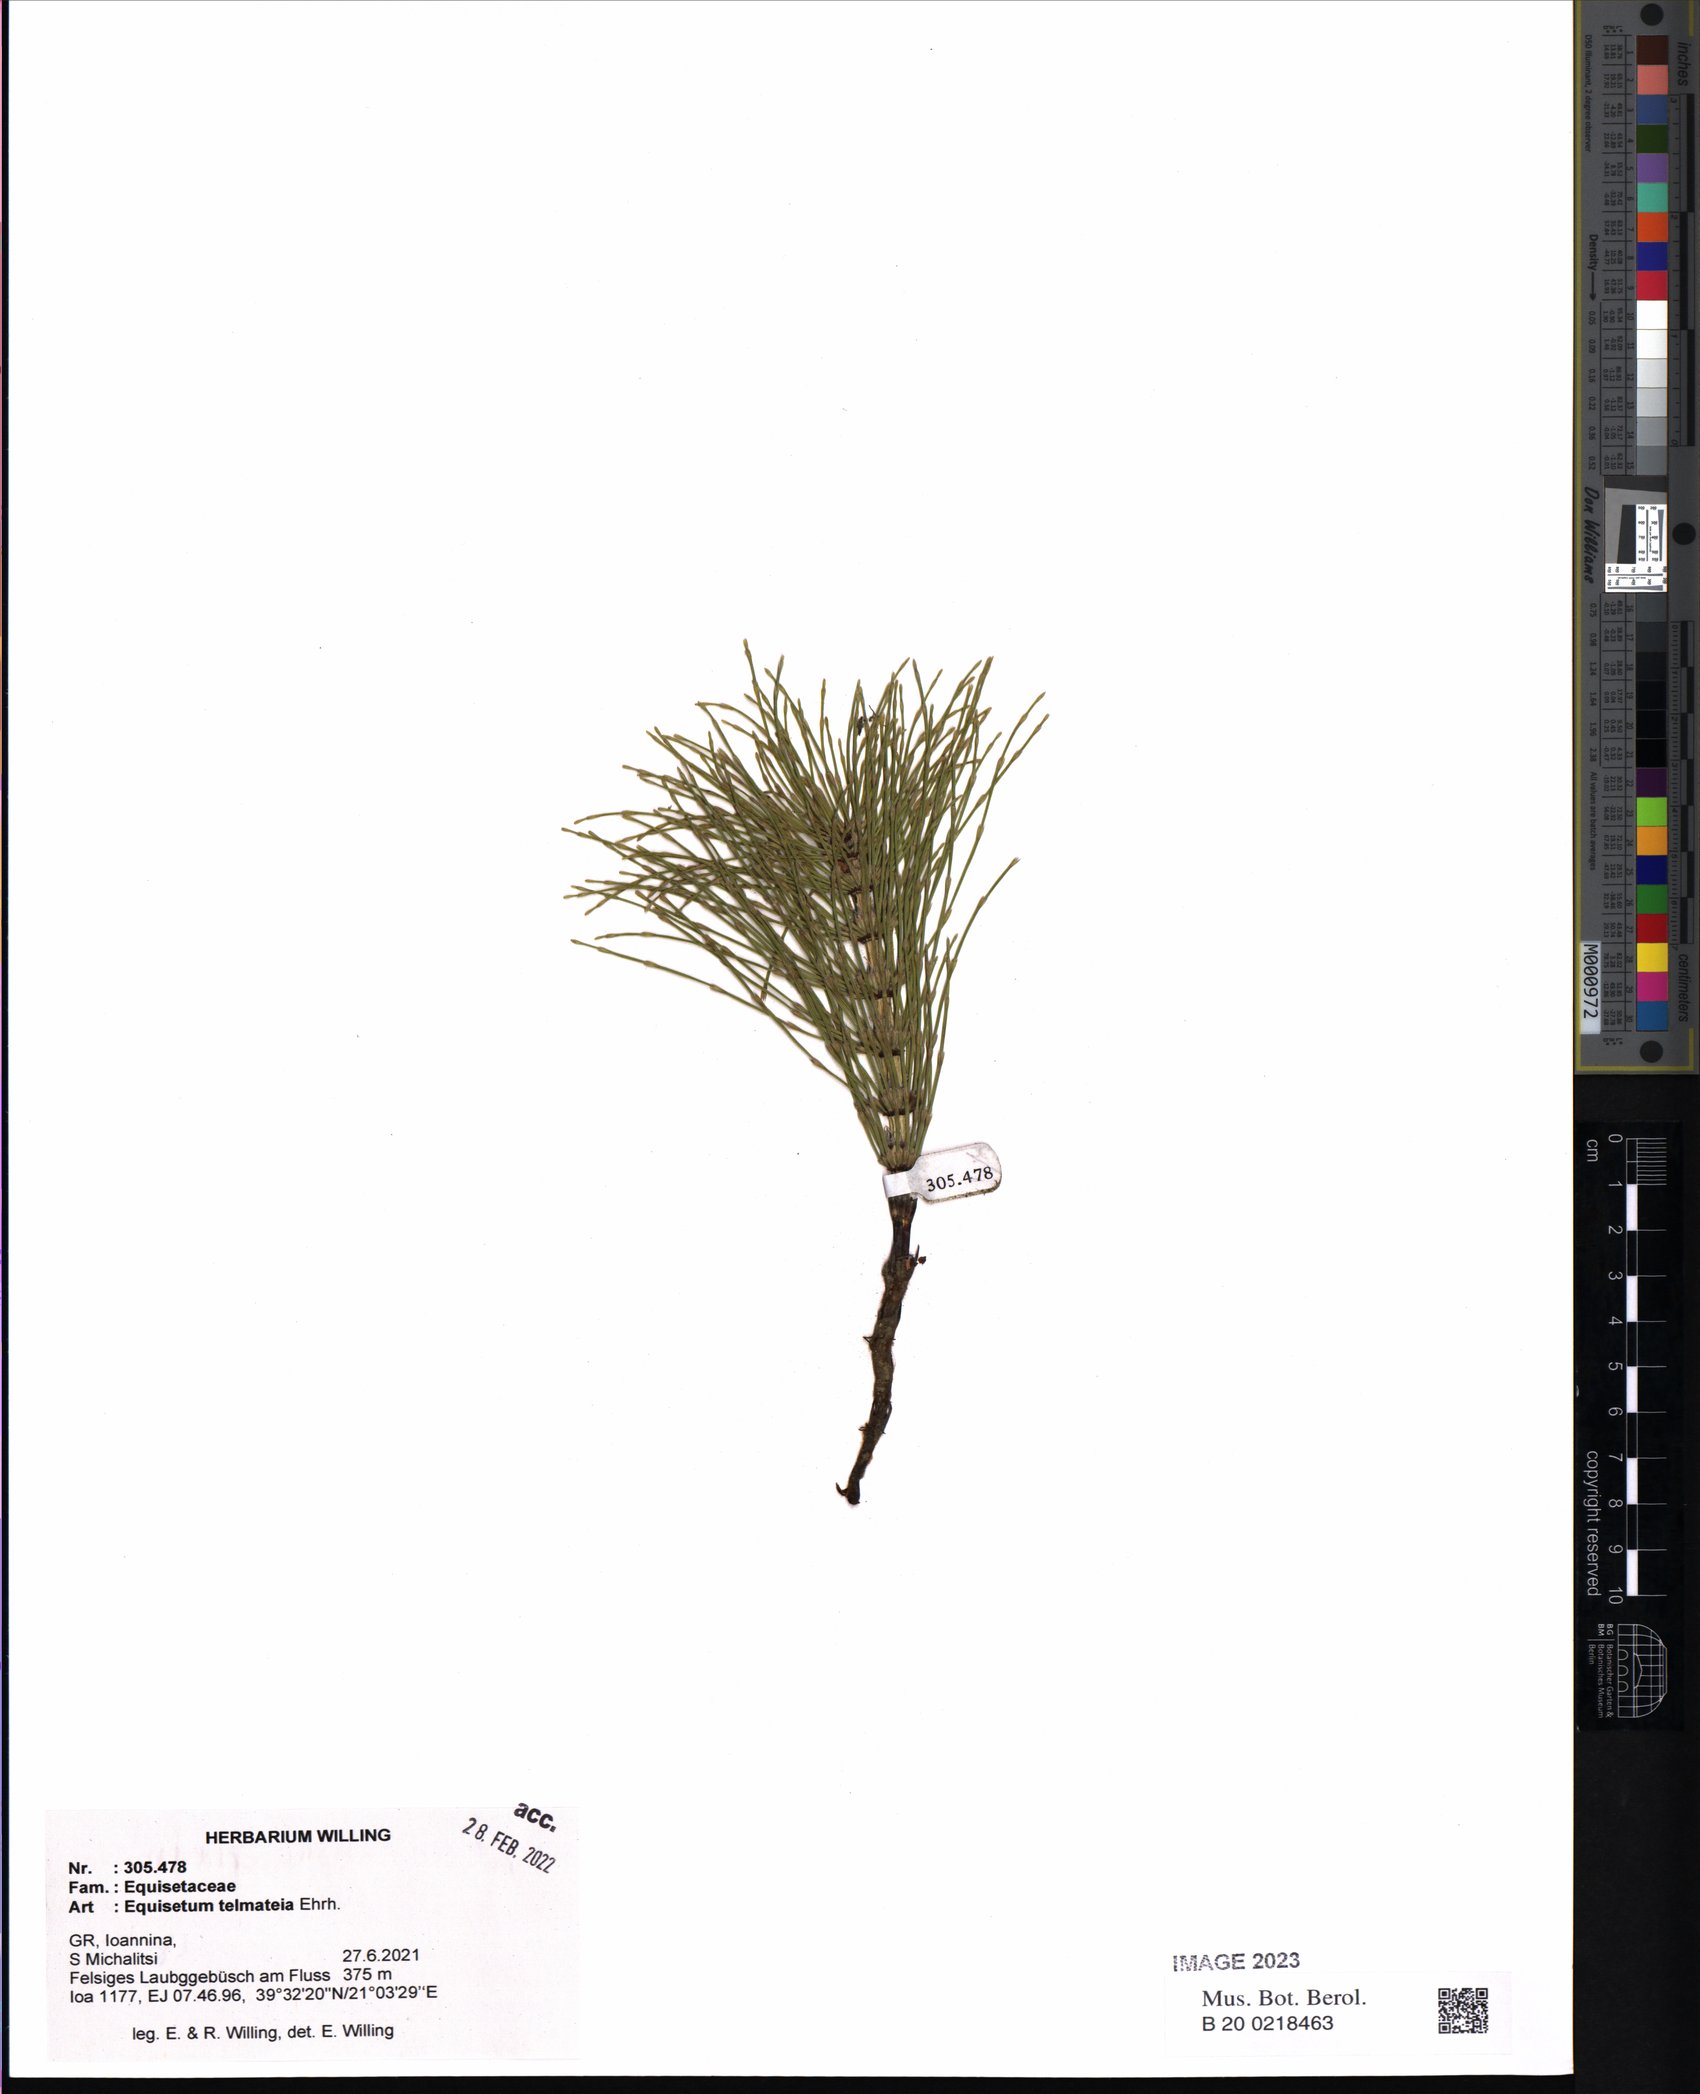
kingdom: Plantae
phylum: Tracheophyta
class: Polypodiopsida
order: Equisetales
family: Equisetaceae
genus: Equisetum
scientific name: Equisetum telmateia
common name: Great horsetail
